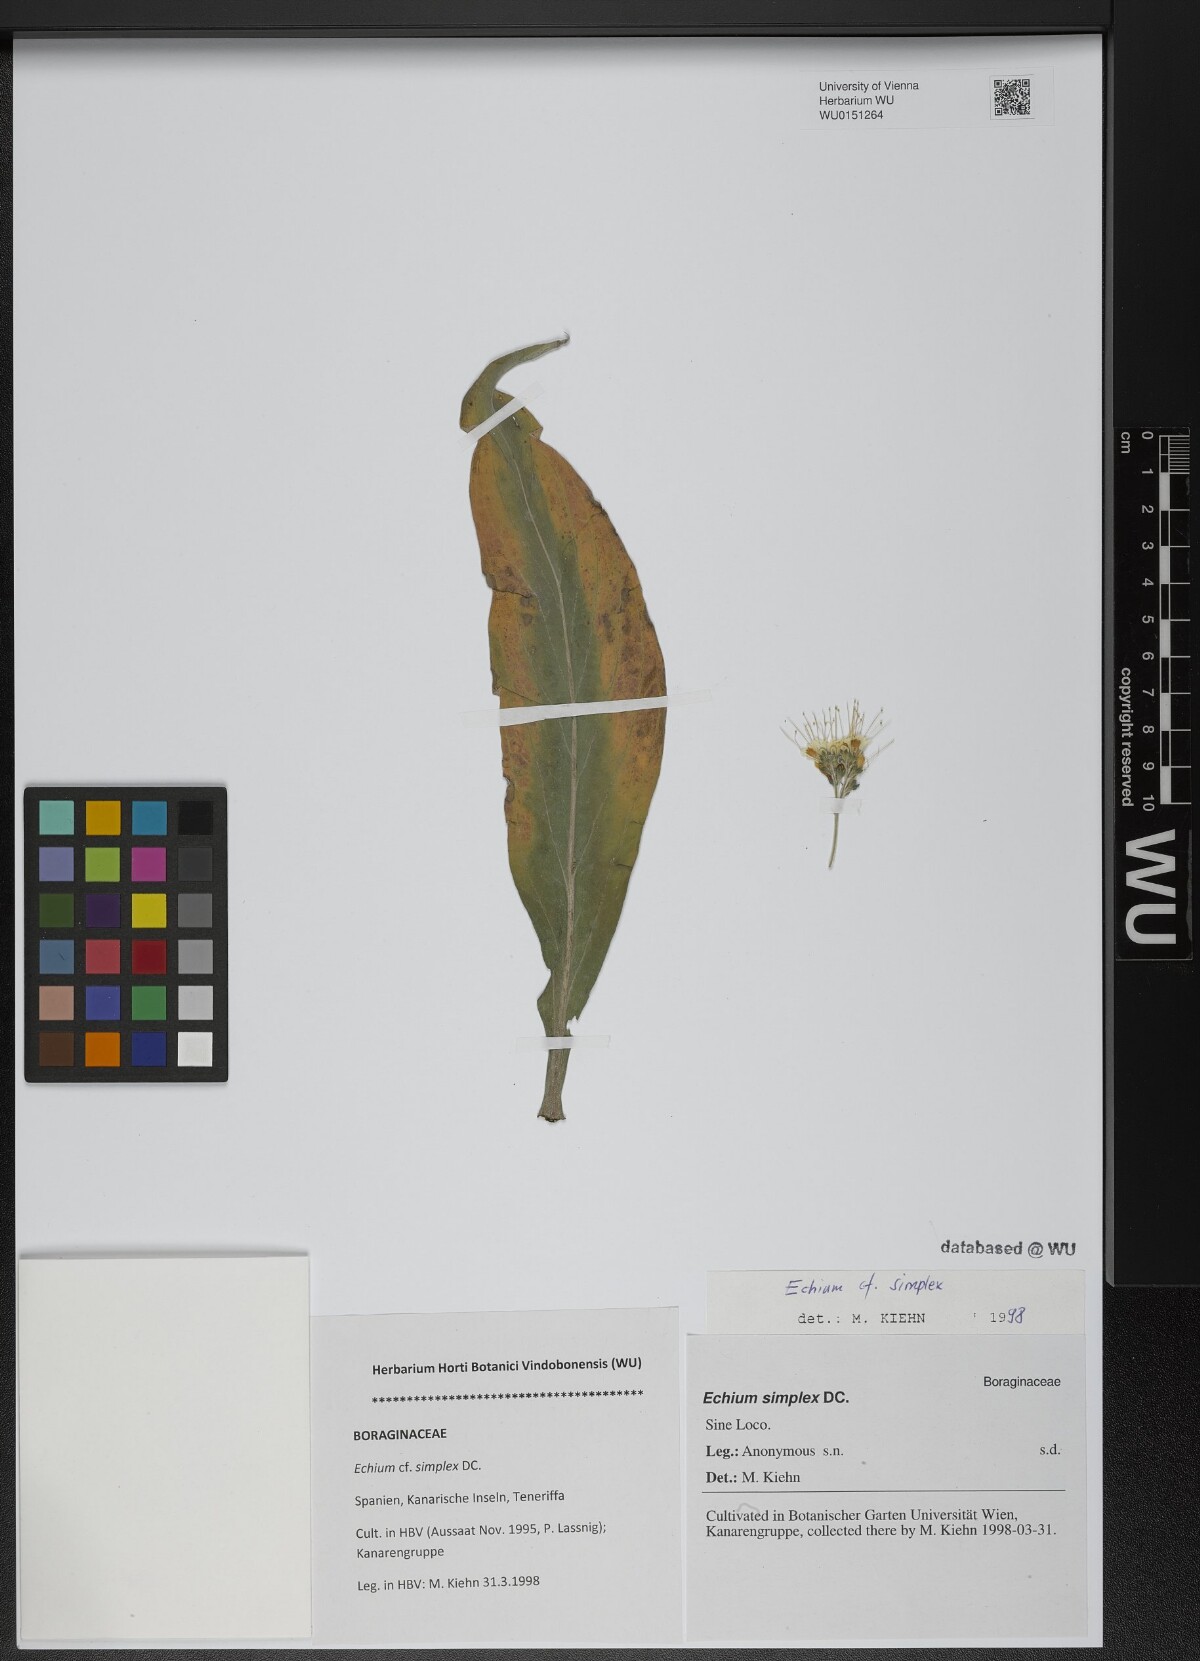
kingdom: Plantae
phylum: Tracheophyta
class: Magnoliopsida
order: Boraginales
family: Boraginaceae
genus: Echium
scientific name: Echium simplex
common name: Pride-of-tenerife
